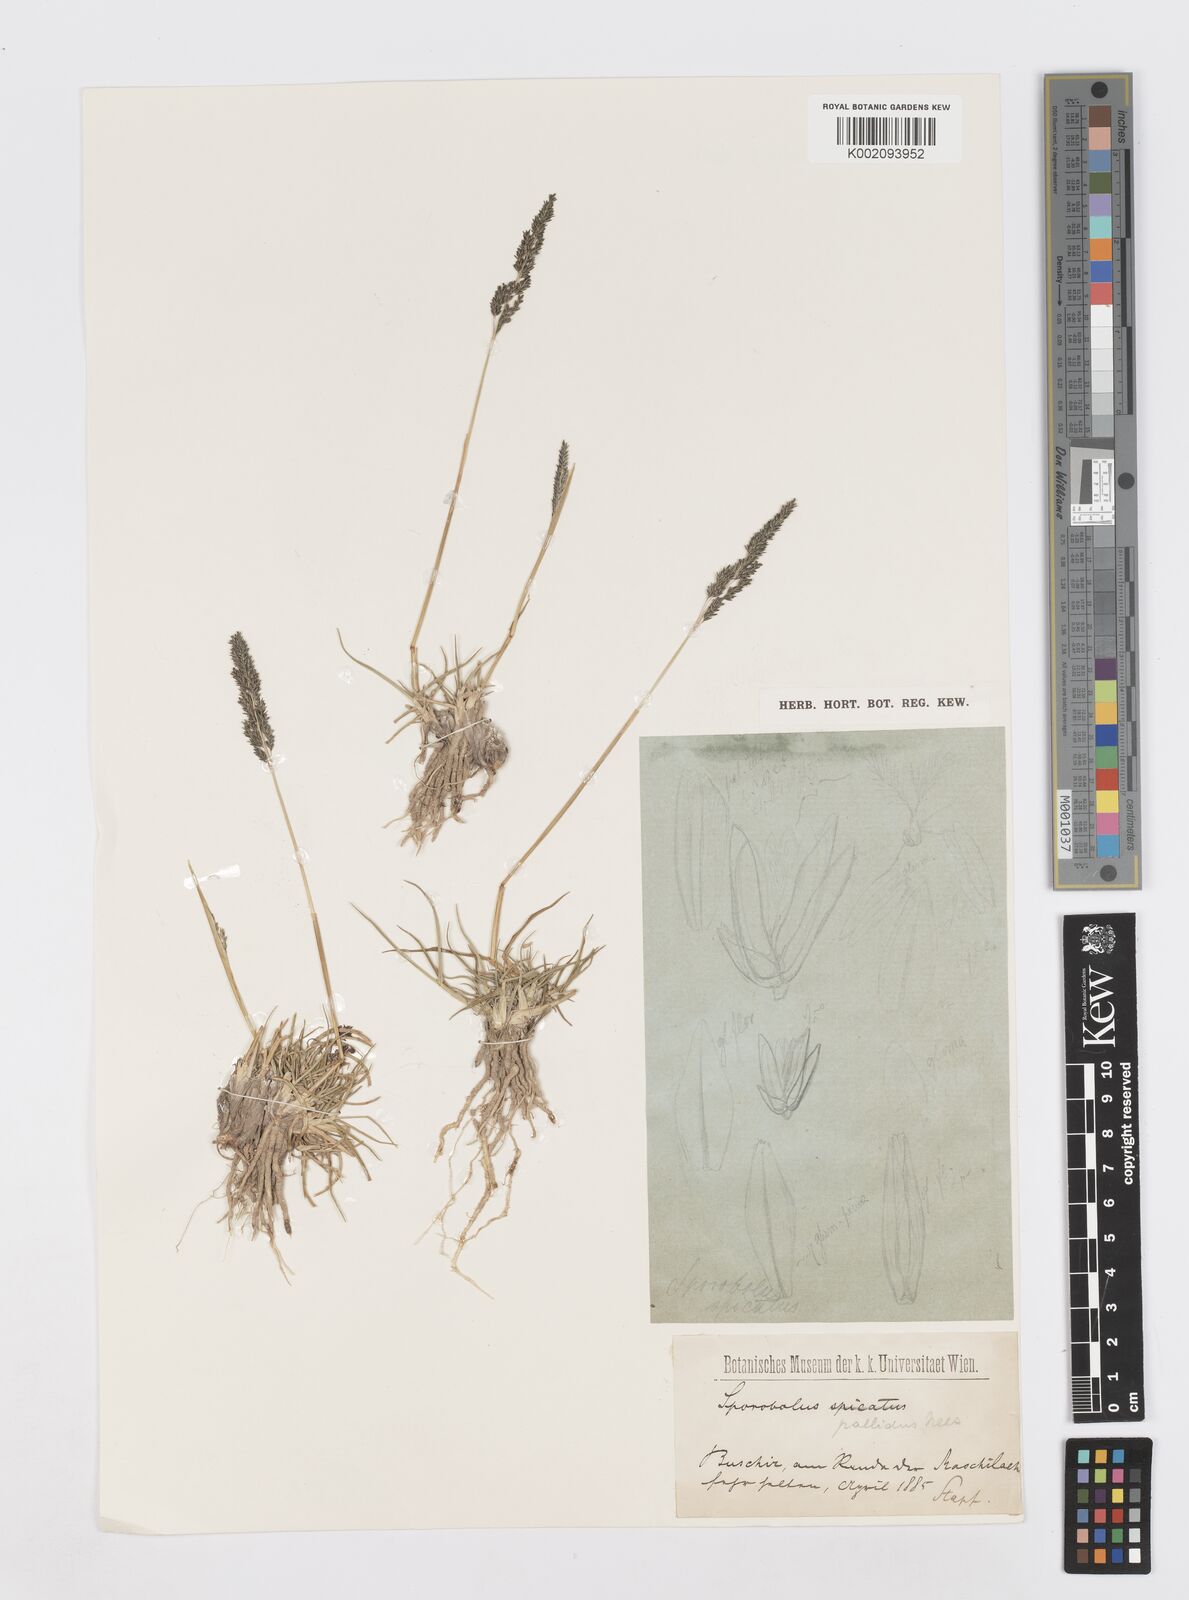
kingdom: Plantae
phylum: Tracheophyta
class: Liliopsida
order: Poales
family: Poaceae
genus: Sporobolus
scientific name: Sporobolus
